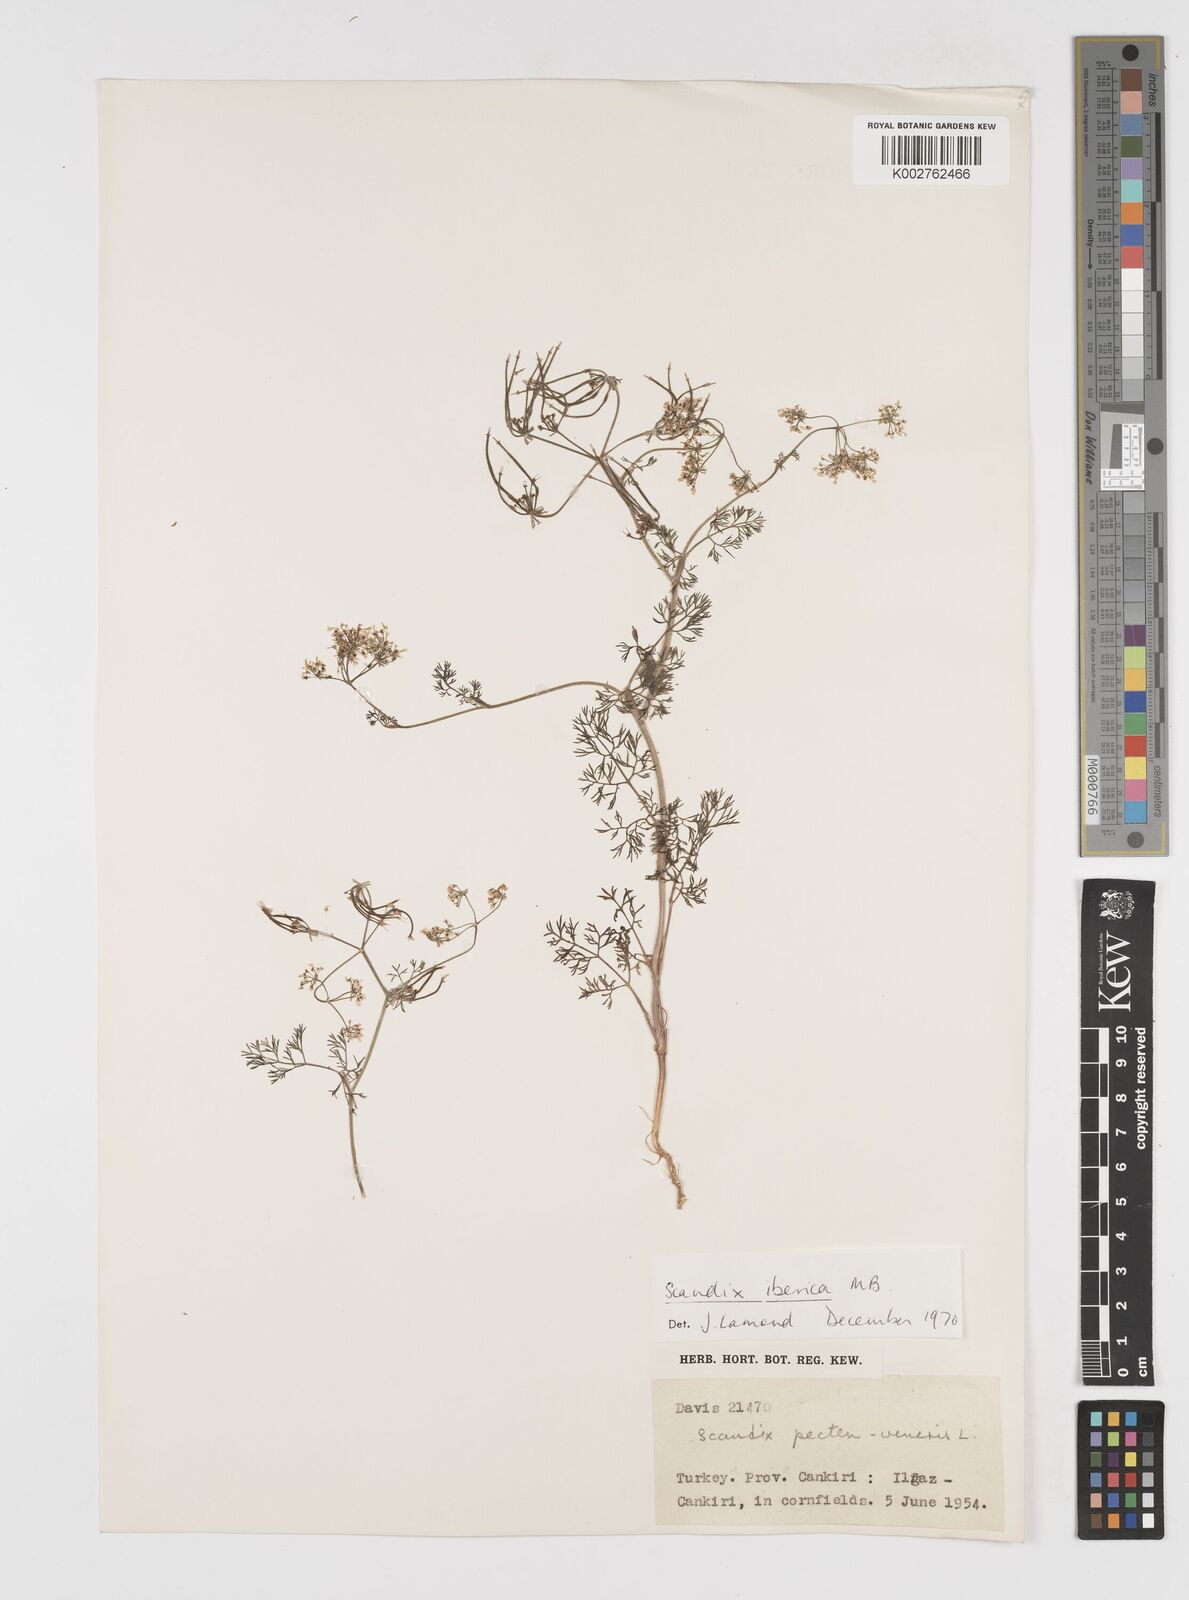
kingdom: Plantae
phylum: Tracheophyta
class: Magnoliopsida
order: Apiales
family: Apiaceae
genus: Scandix
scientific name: Scandix iberica
